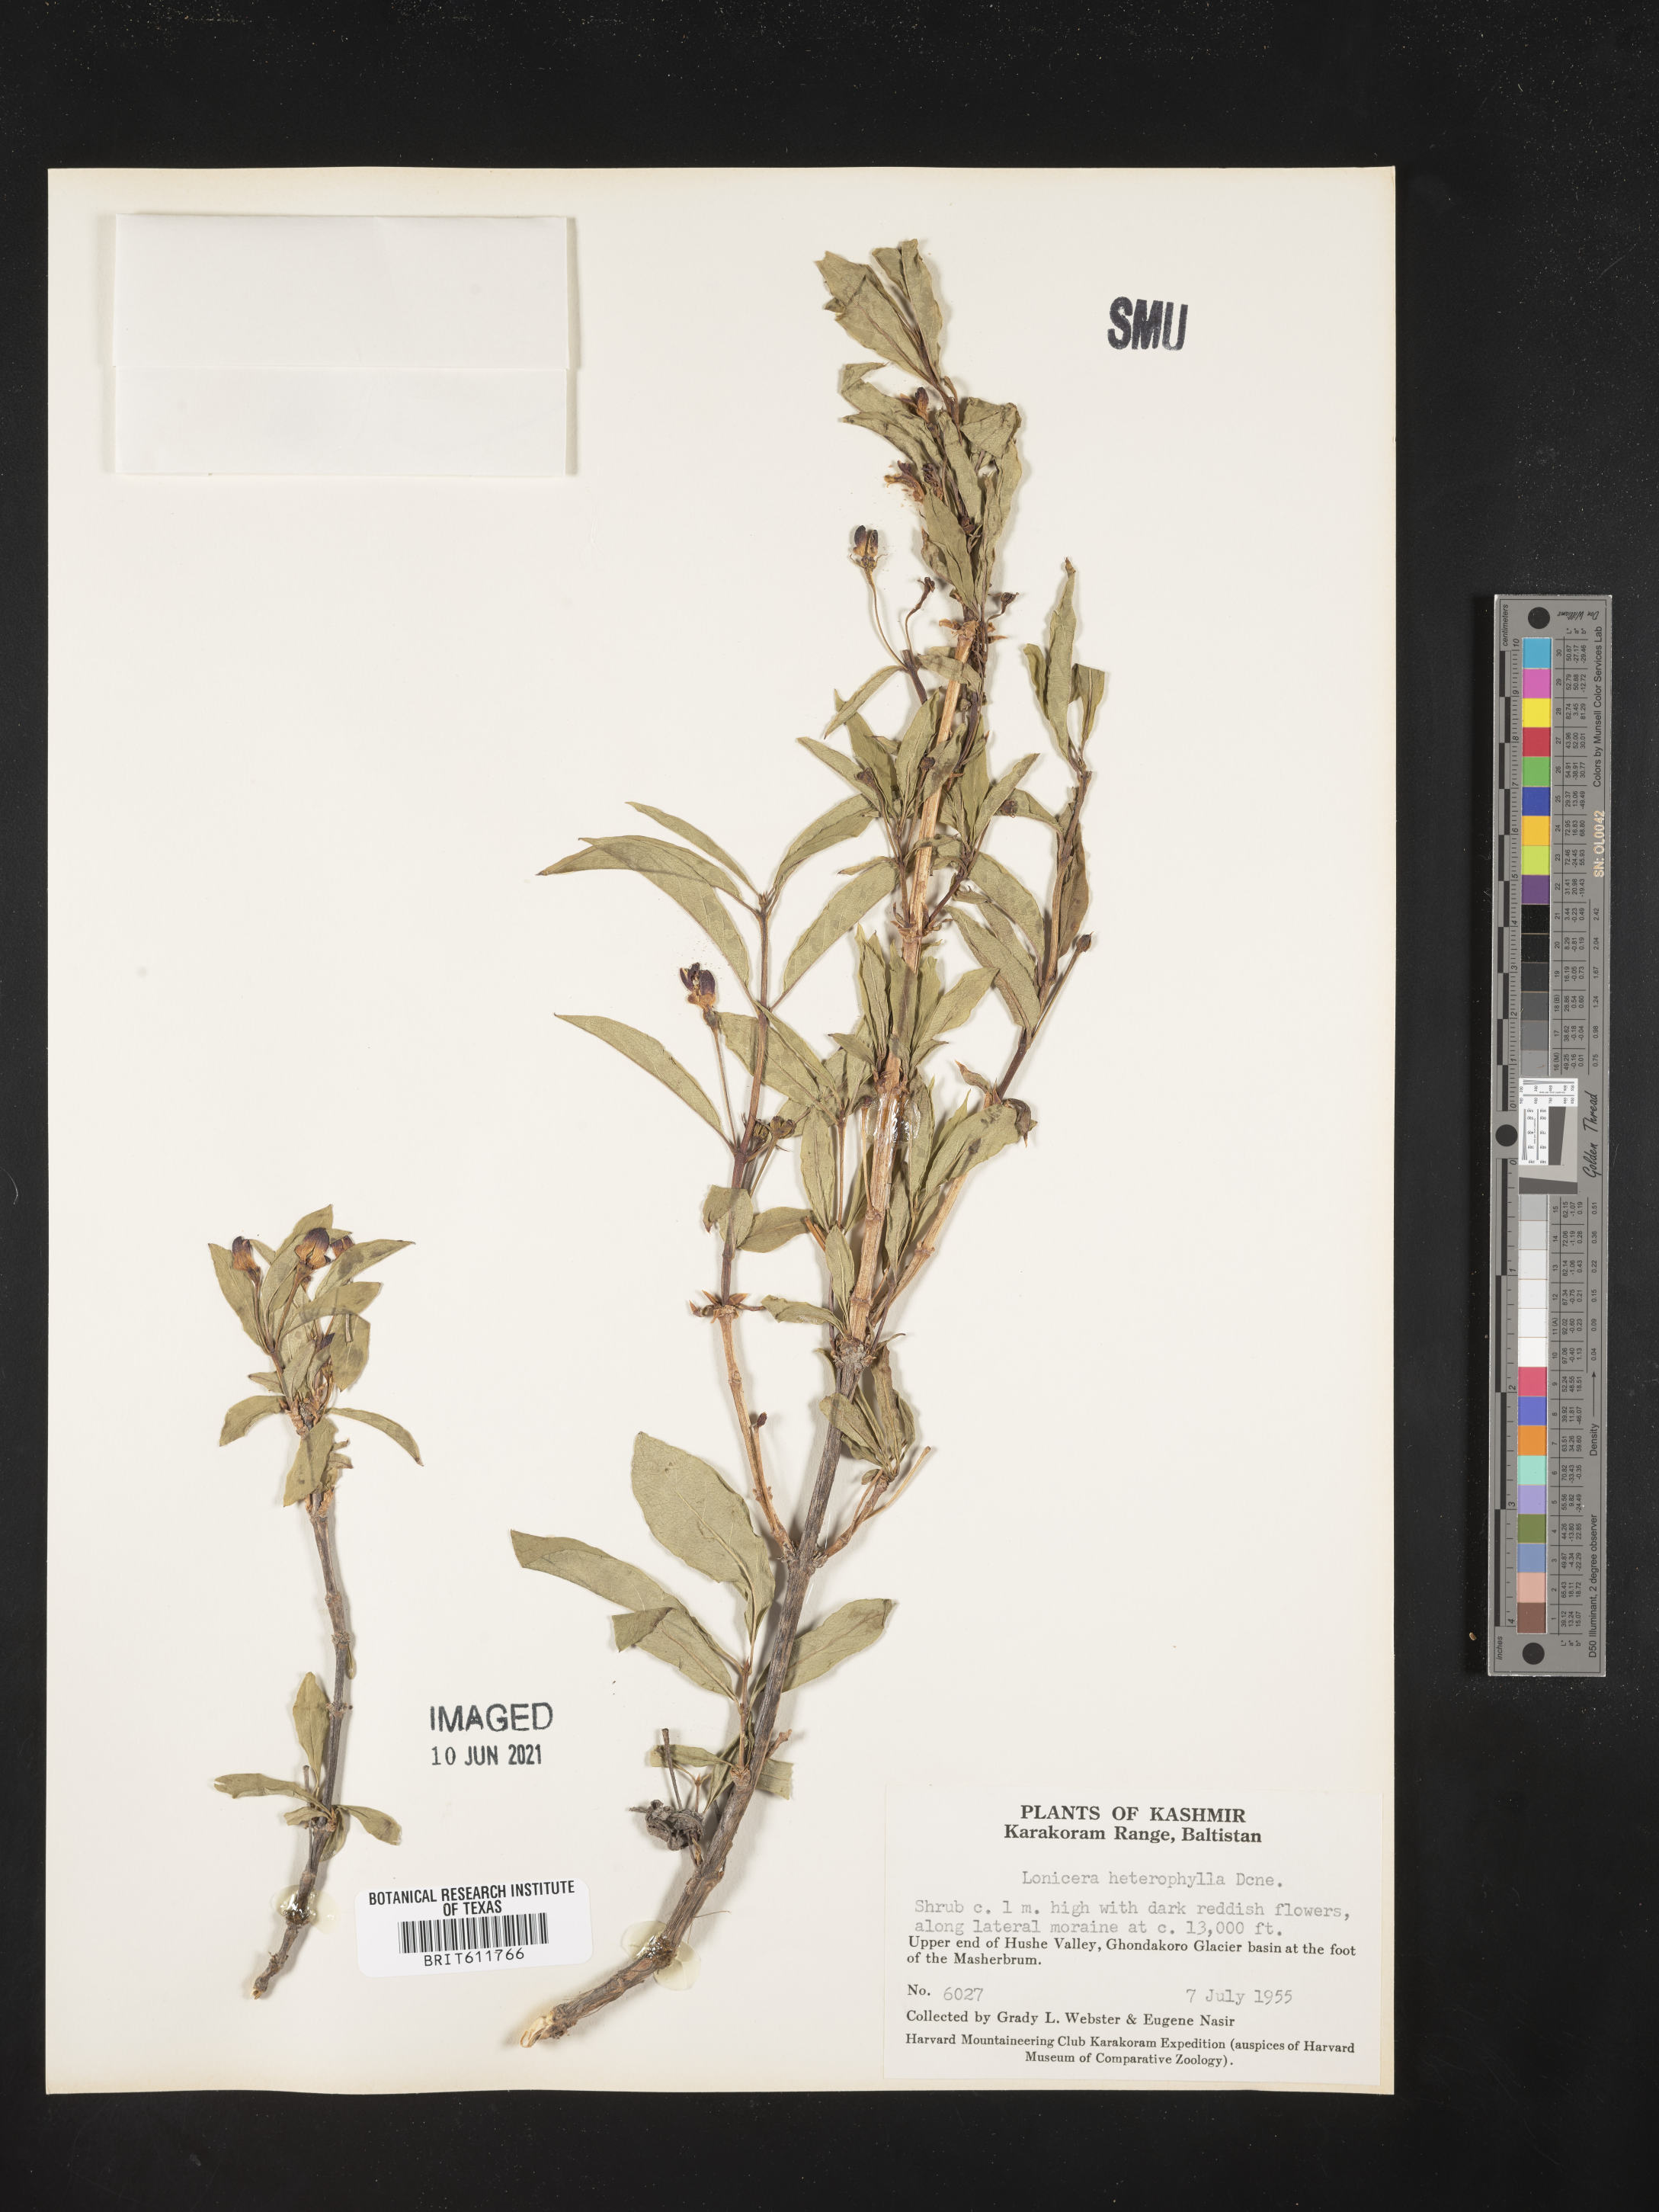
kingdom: Plantae
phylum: Tracheophyta
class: Magnoliopsida
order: Dipsacales
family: Caprifoliaceae
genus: Lonicera
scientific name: Lonicera heterophylla
